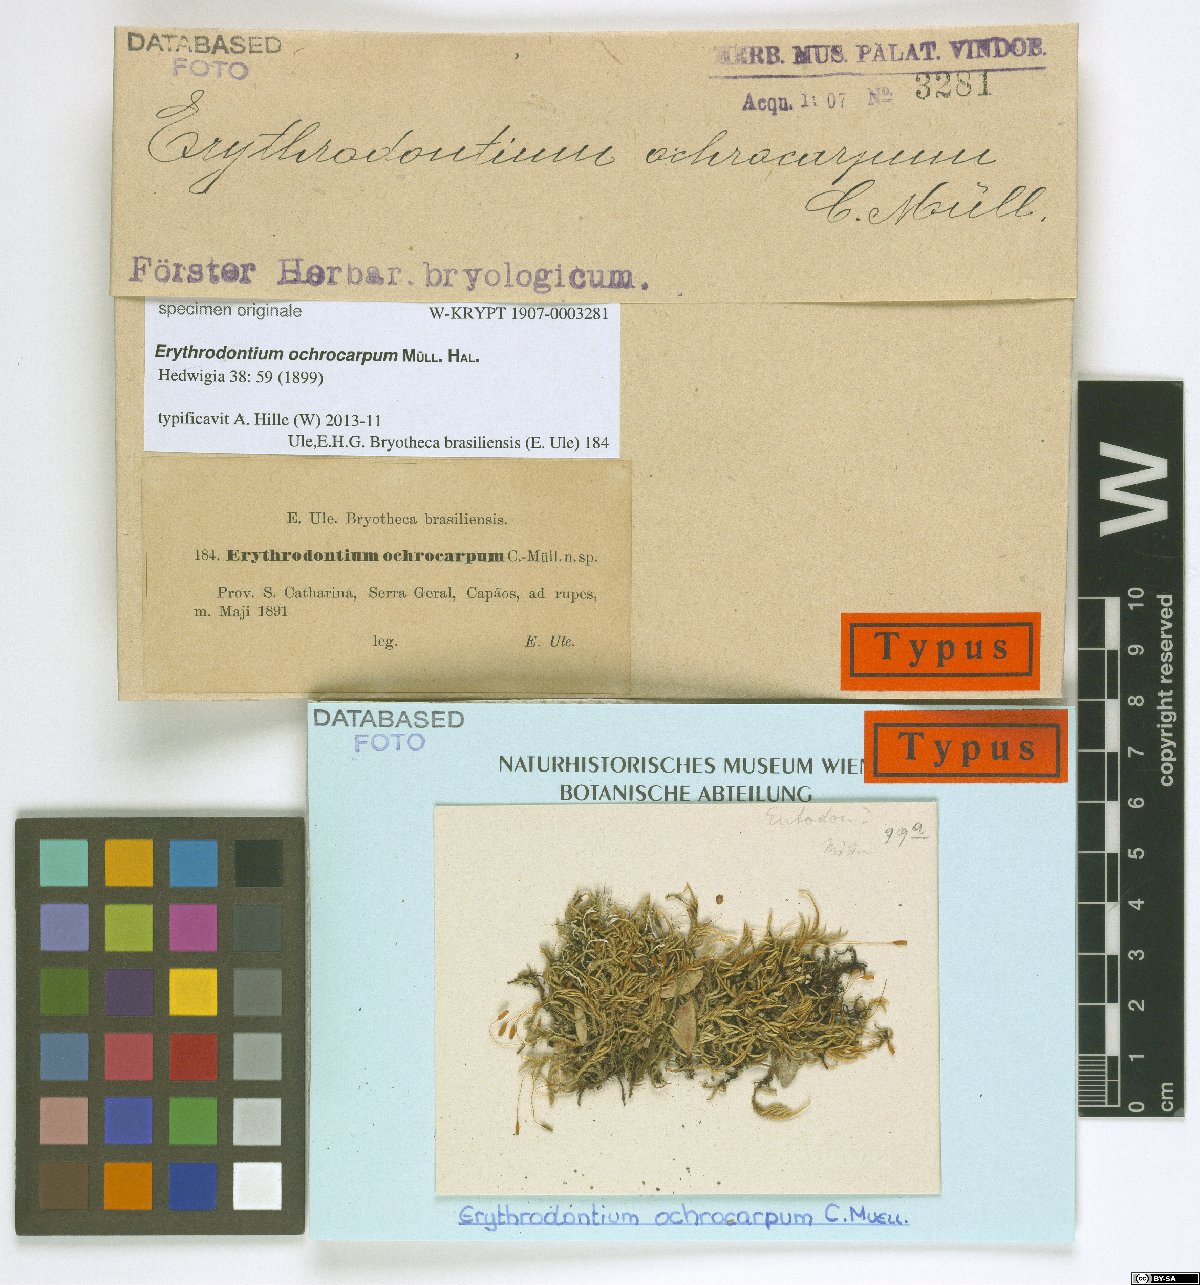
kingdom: Plantae
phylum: Bryophyta
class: Bryopsida
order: Hypnales
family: Entodontaceae
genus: Erythrodontium
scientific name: Erythrodontium
